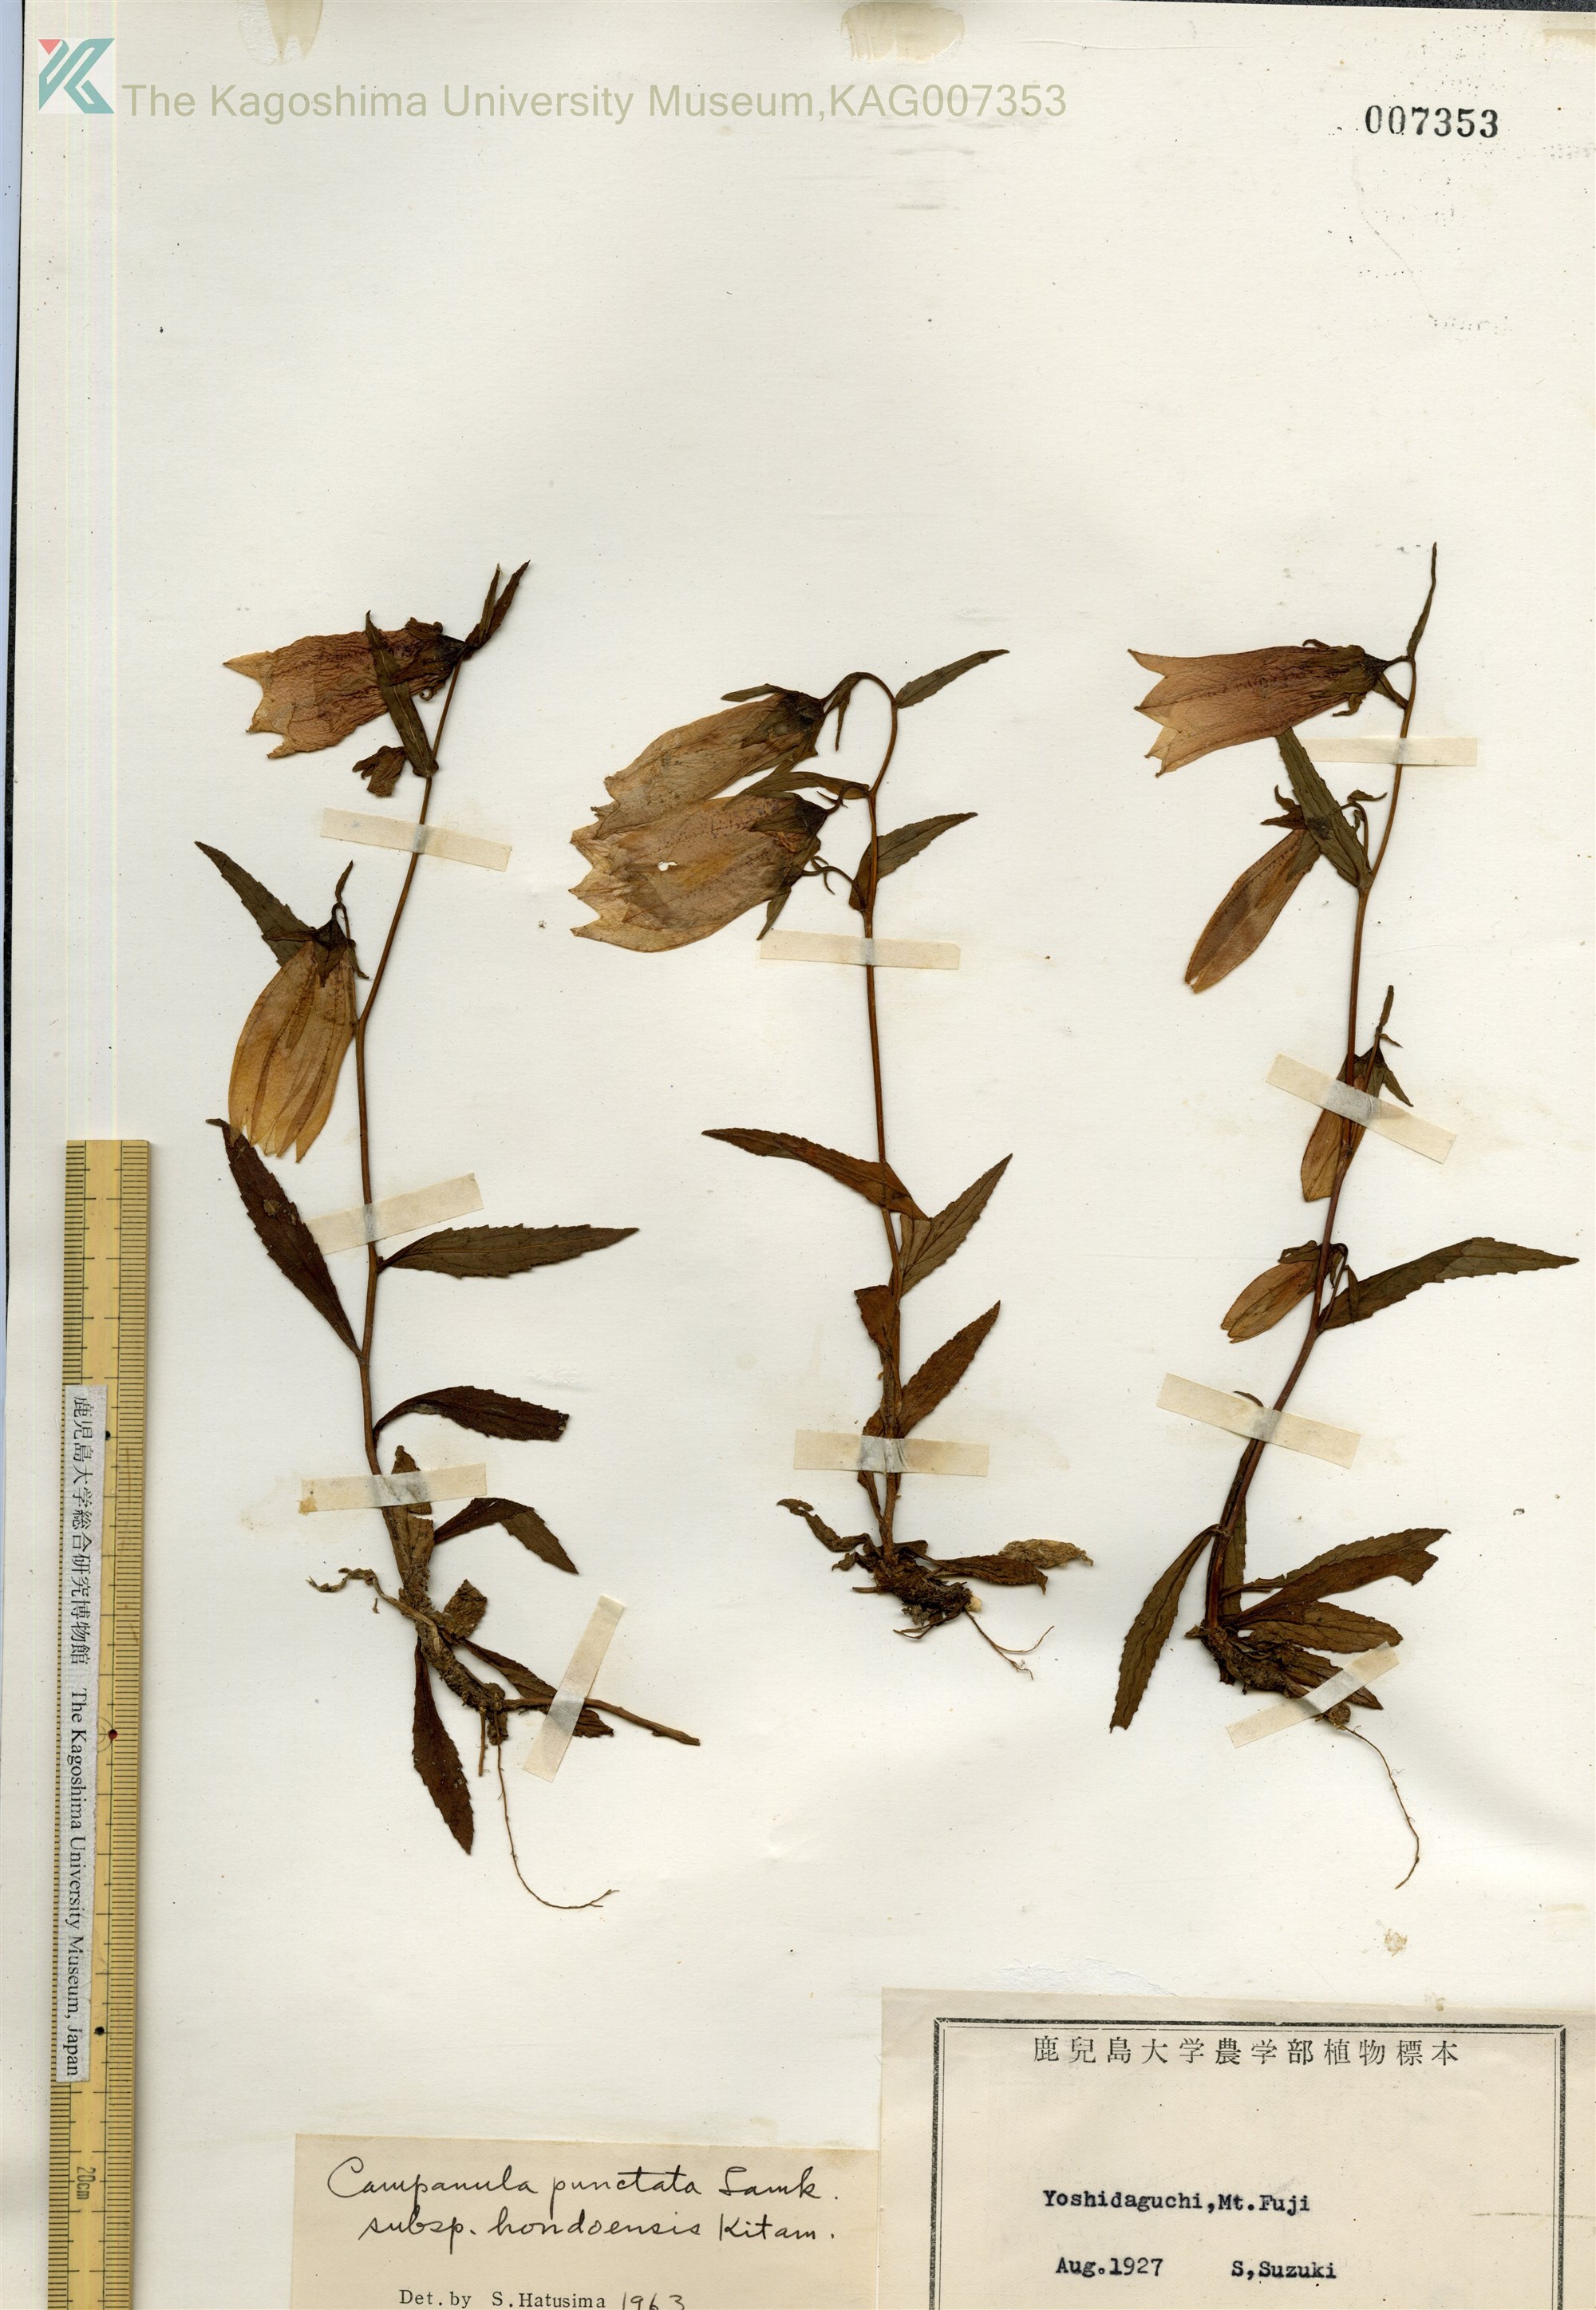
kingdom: Plantae
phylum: Tracheophyta
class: Magnoliopsida
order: Asterales
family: Campanulaceae
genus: Campanula
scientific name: Campanula punctata
